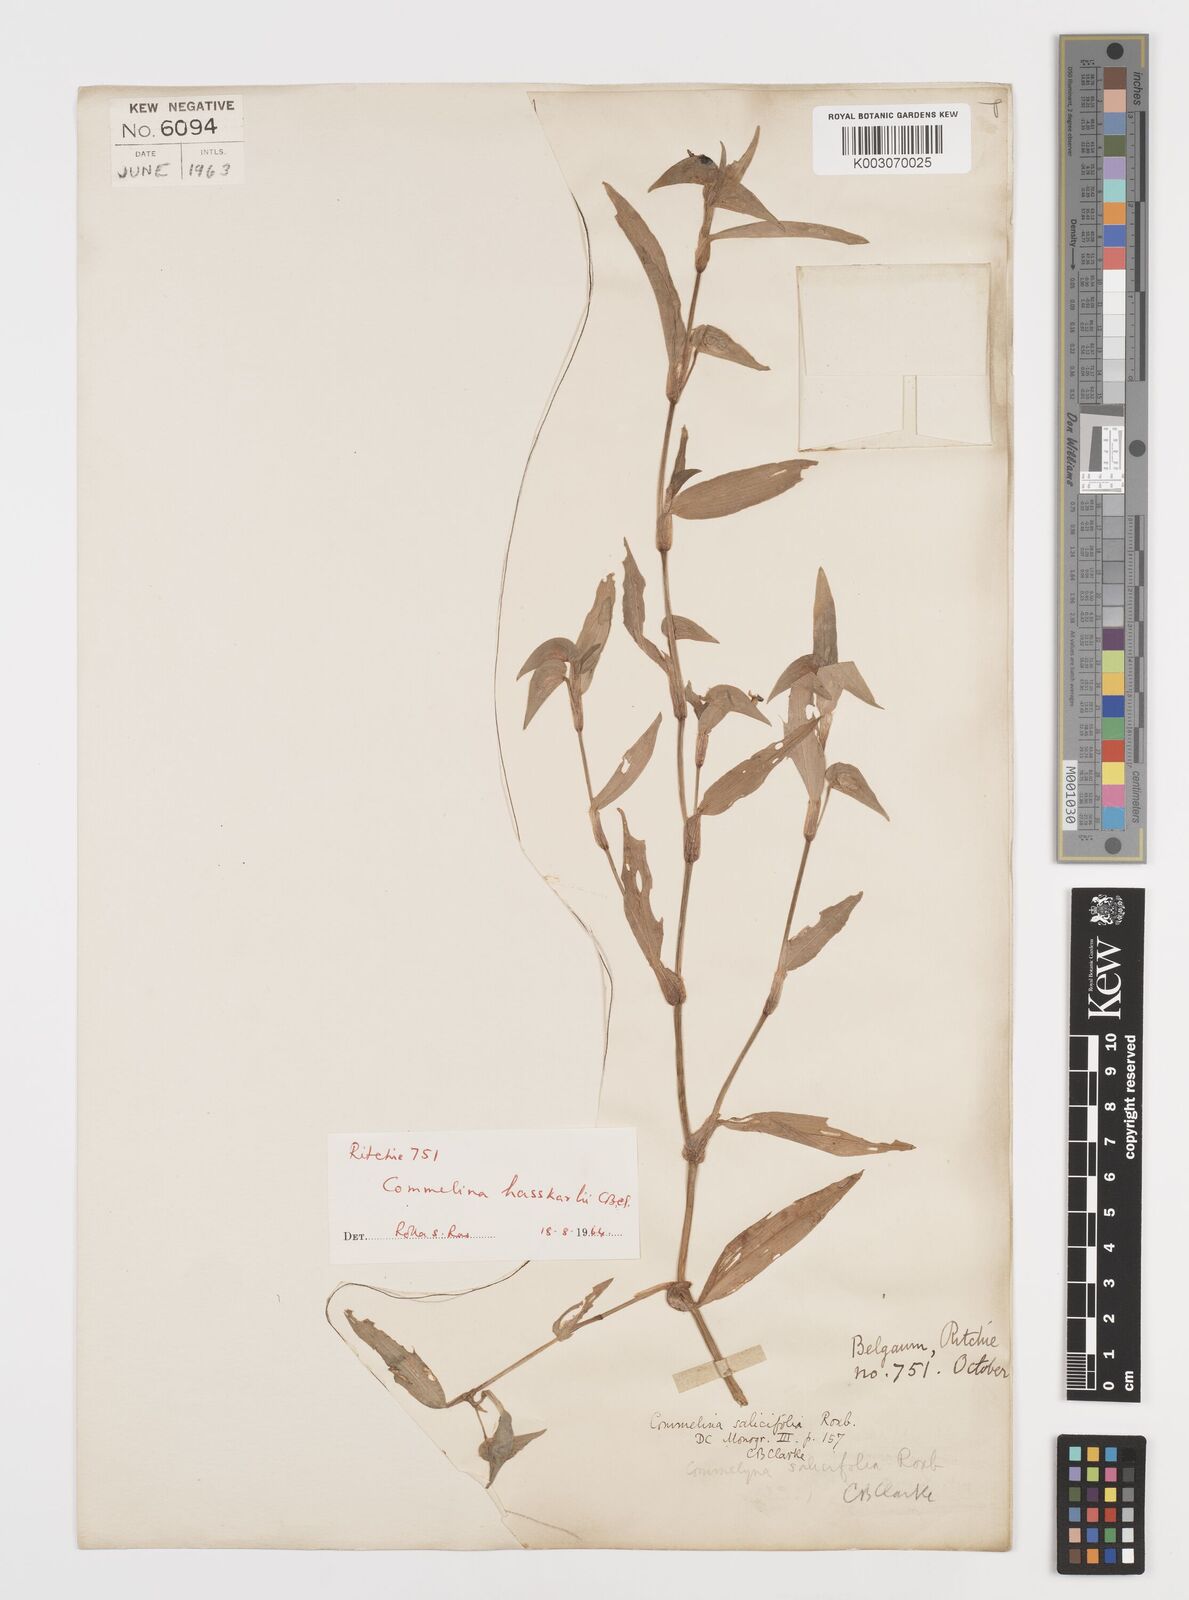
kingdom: Plantae
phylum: Tracheophyta
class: Liliopsida
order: Commelinales
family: Commelinaceae
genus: Commelina
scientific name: Commelina caroliniana
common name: Carolina dayflower
